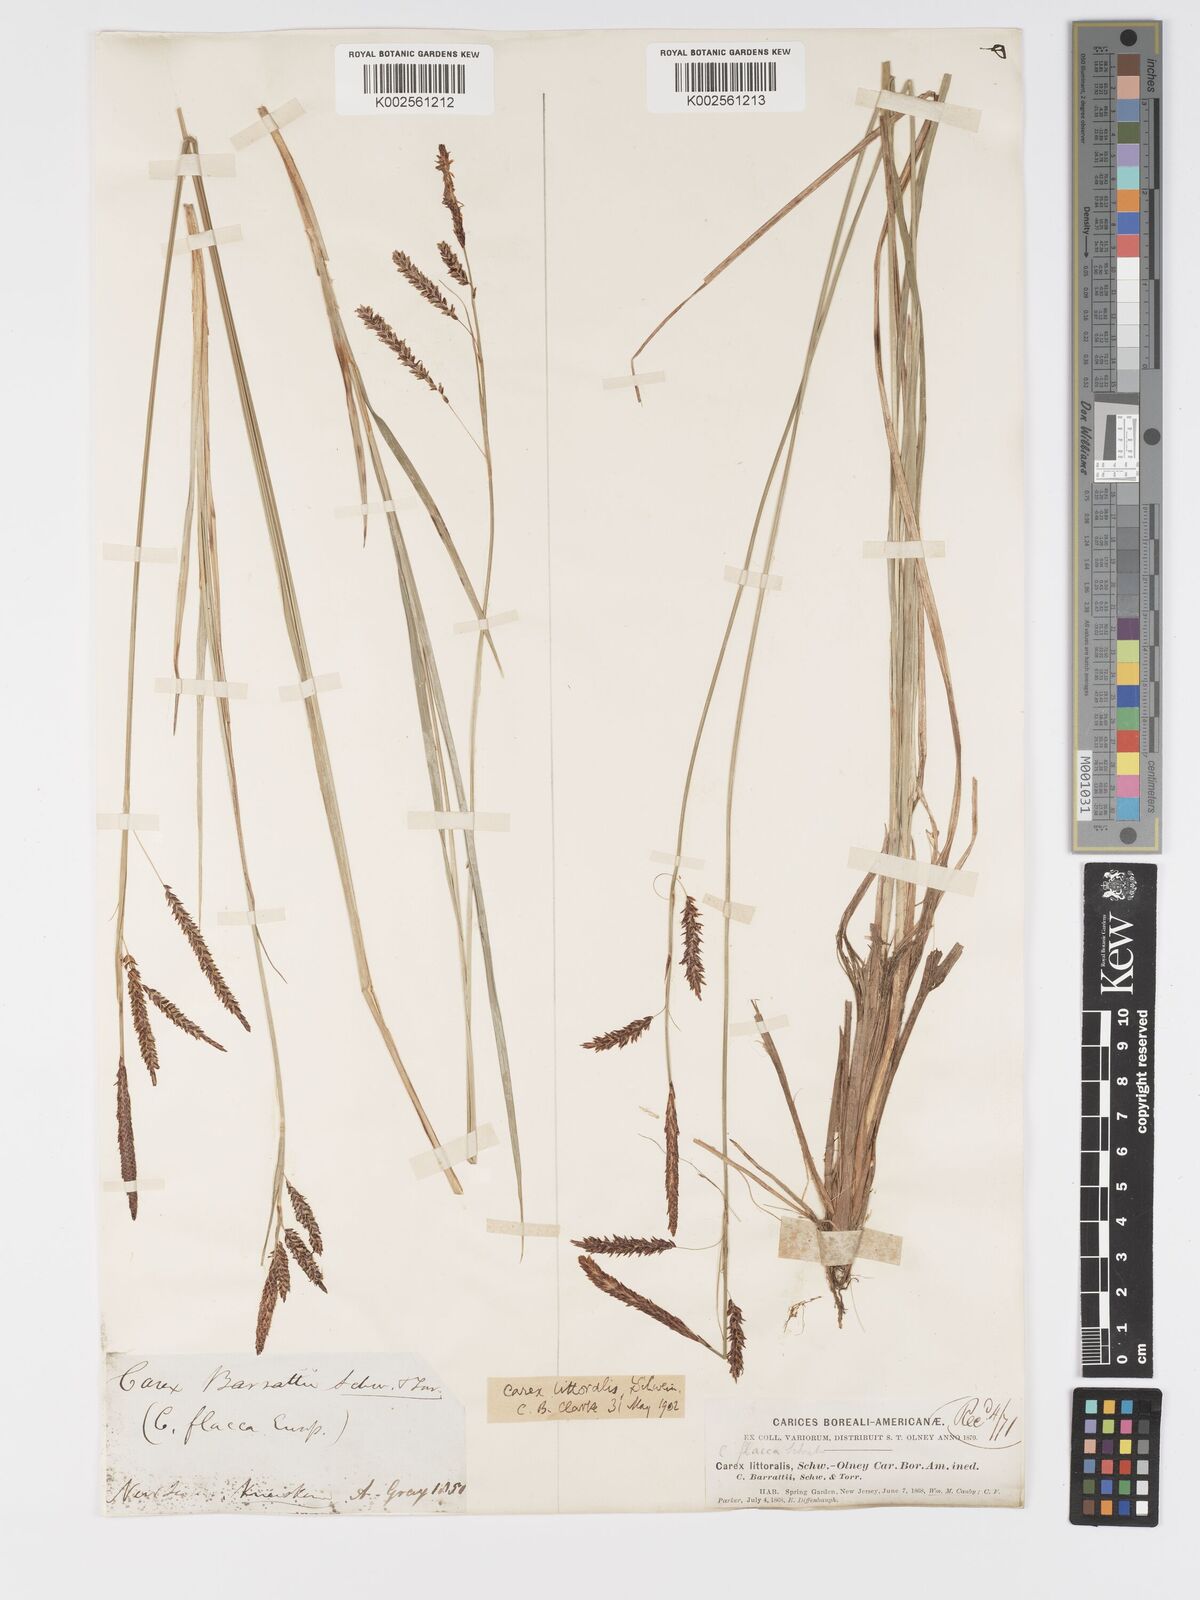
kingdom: Plantae
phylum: Tracheophyta
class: Liliopsida
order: Poales
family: Cyperaceae
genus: Carex
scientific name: Carex barrattii
